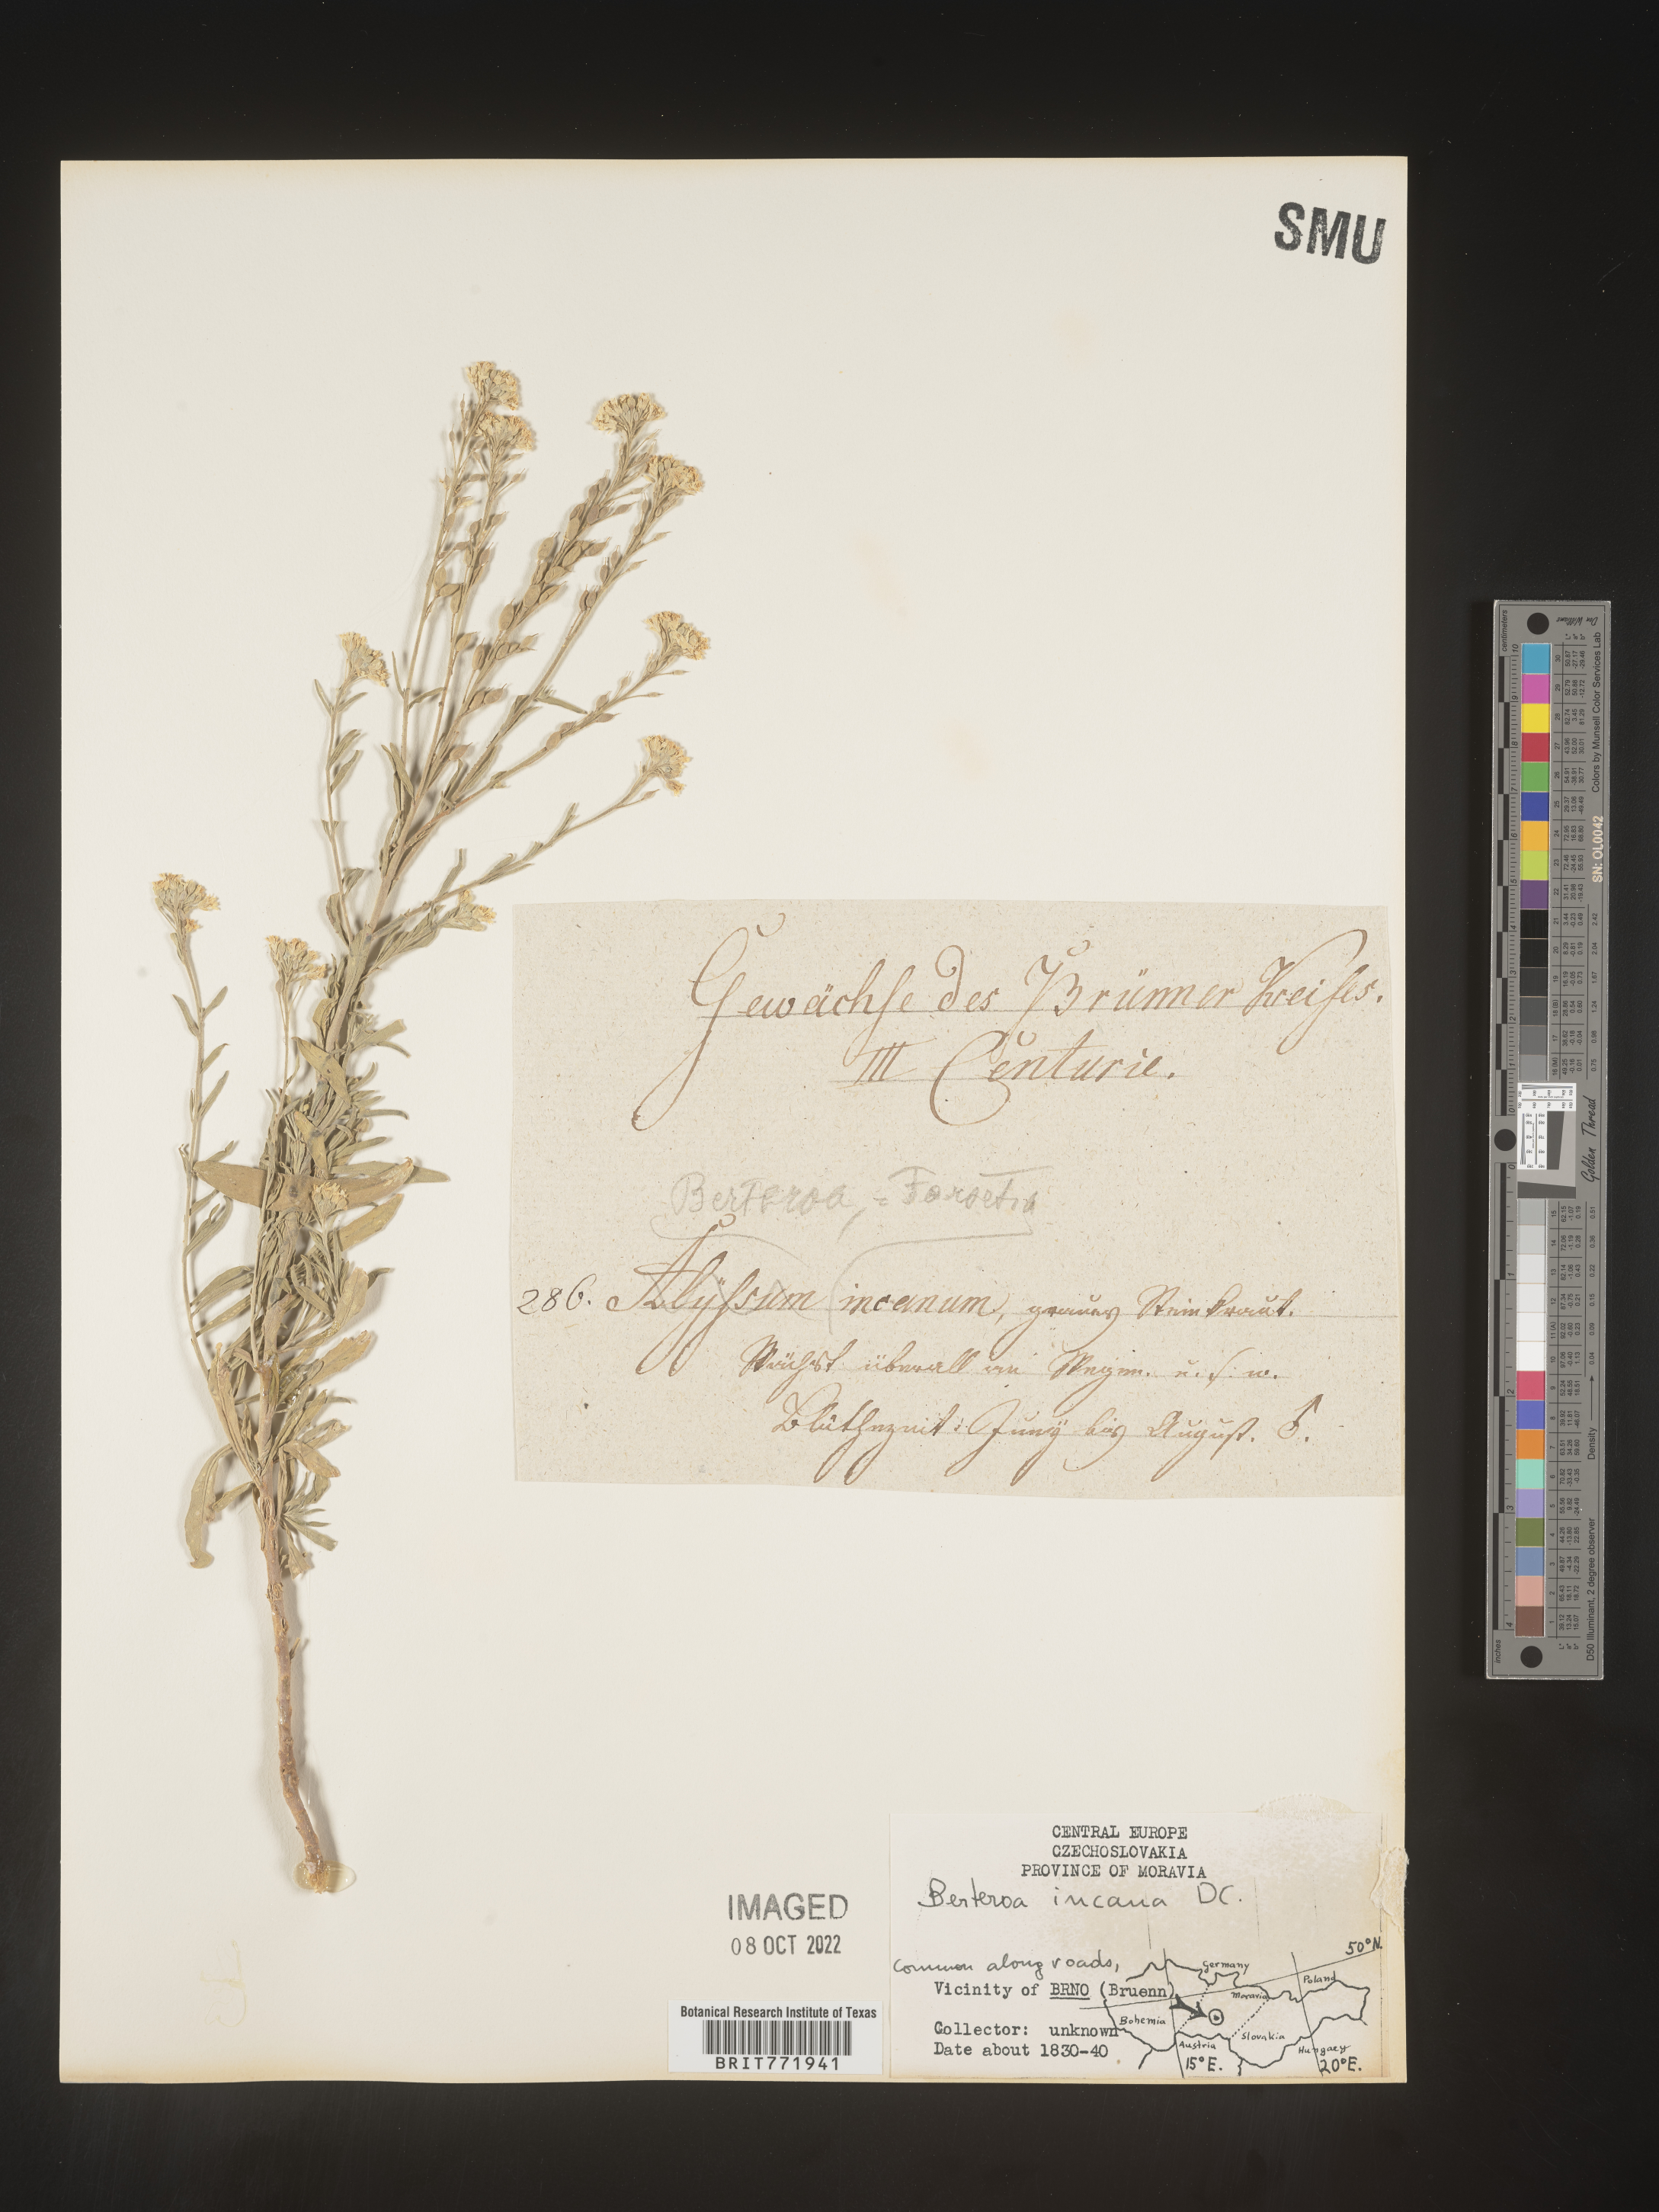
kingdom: Plantae
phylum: Tracheophyta
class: Magnoliopsida
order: Brassicales
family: Brassicaceae
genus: Berteroa
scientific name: Berteroa
